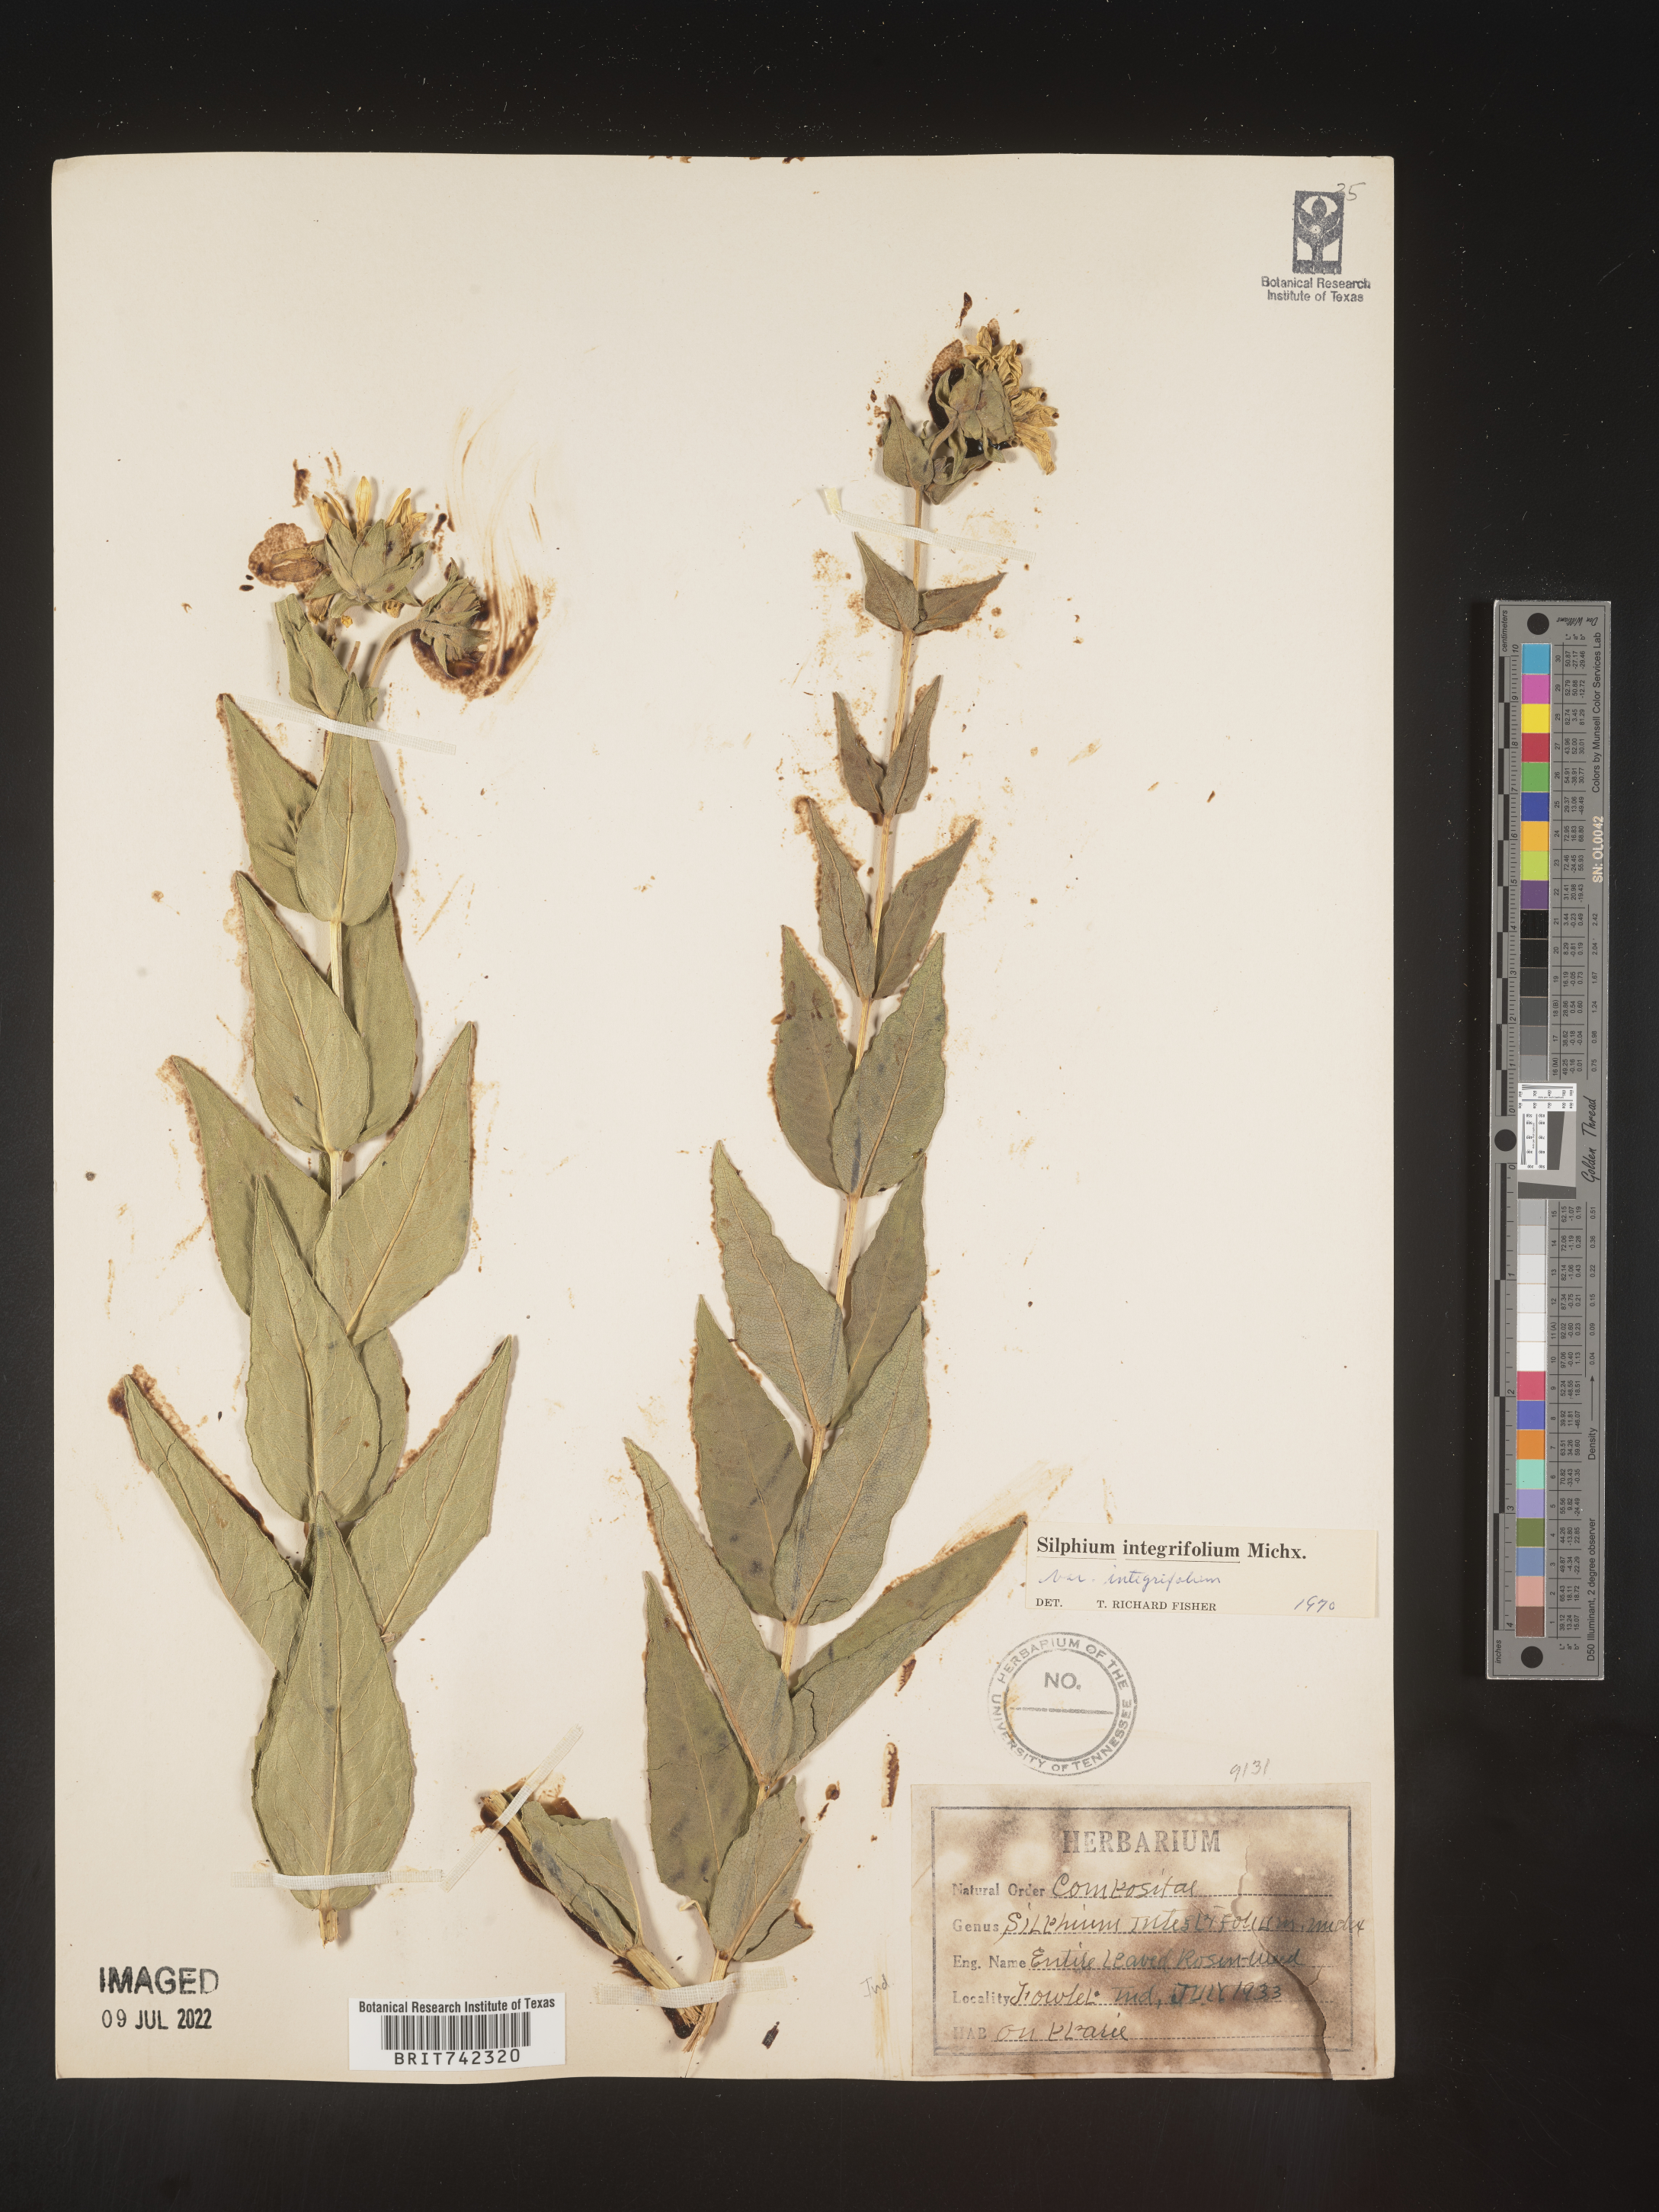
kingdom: Plantae
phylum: Tracheophyta
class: Magnoliopsida
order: Asterales
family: Asteraceae
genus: Silphium
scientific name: Silphium integrifolium
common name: Whole-leaf rosinweed
